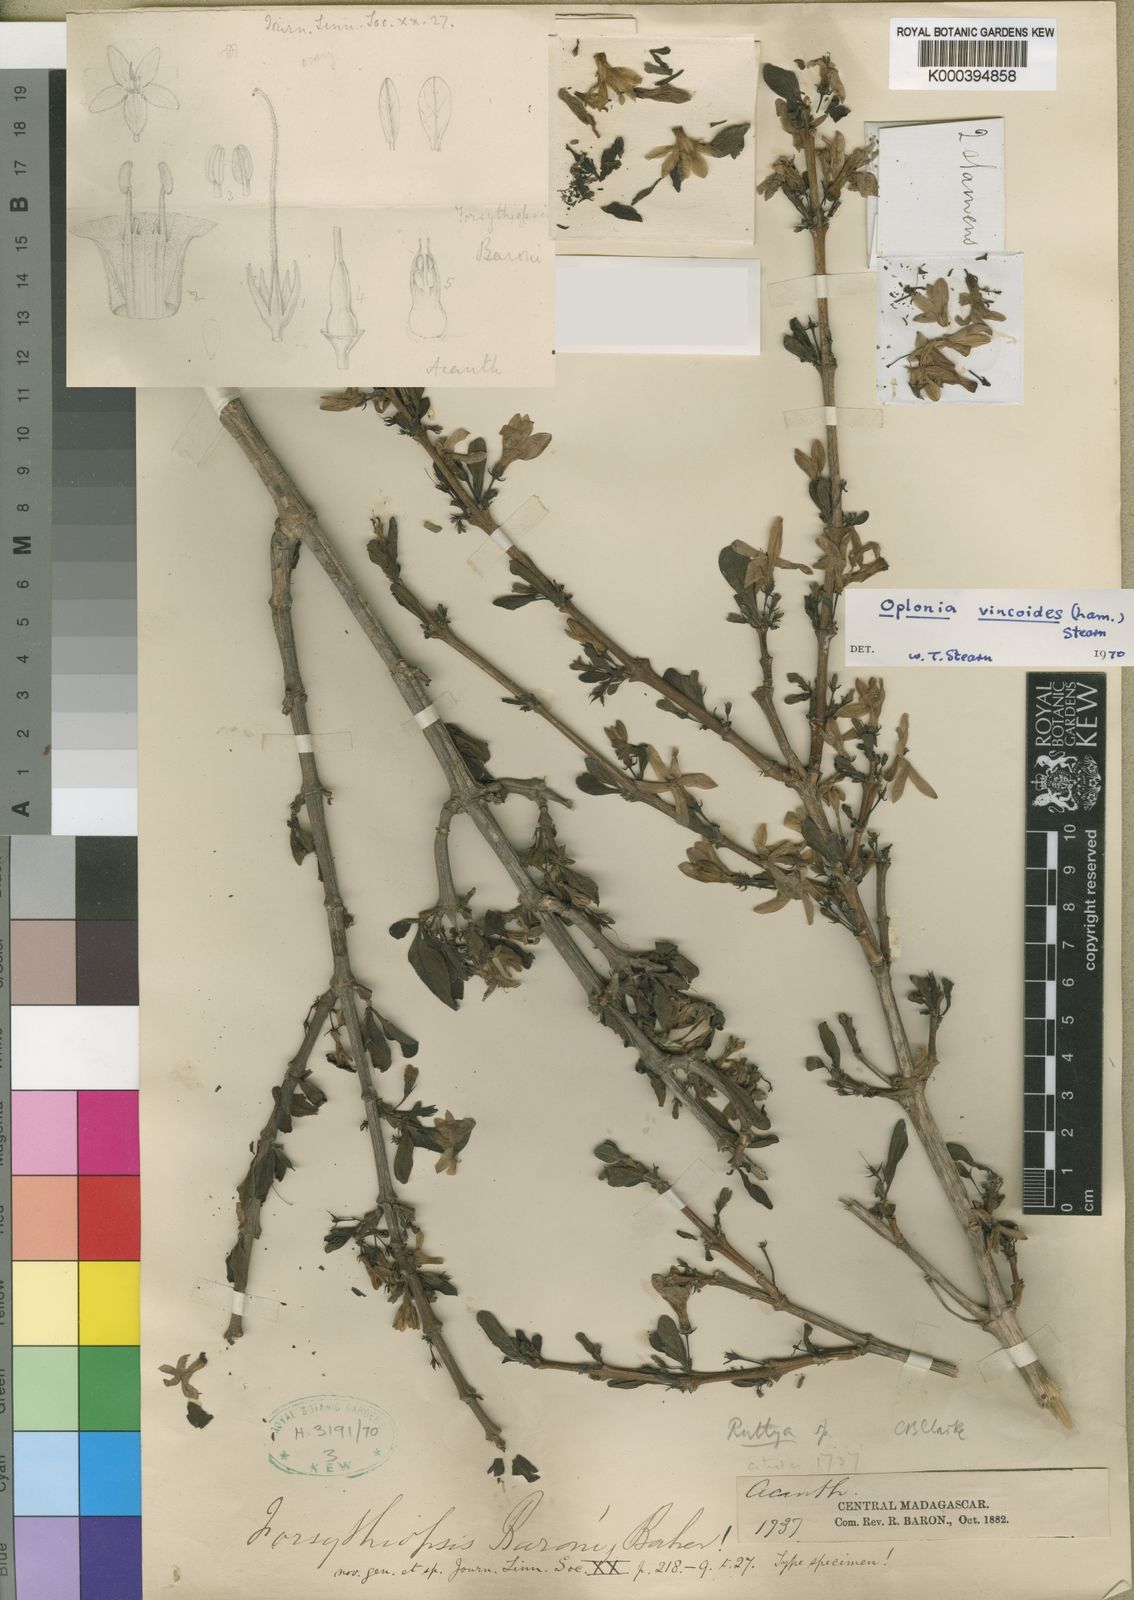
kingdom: Plantae
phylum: Tracheophyta
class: Magnoliopsida
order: Lamiales
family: Acanthaceae
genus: Oplonia
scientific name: Oplonia vincoides
